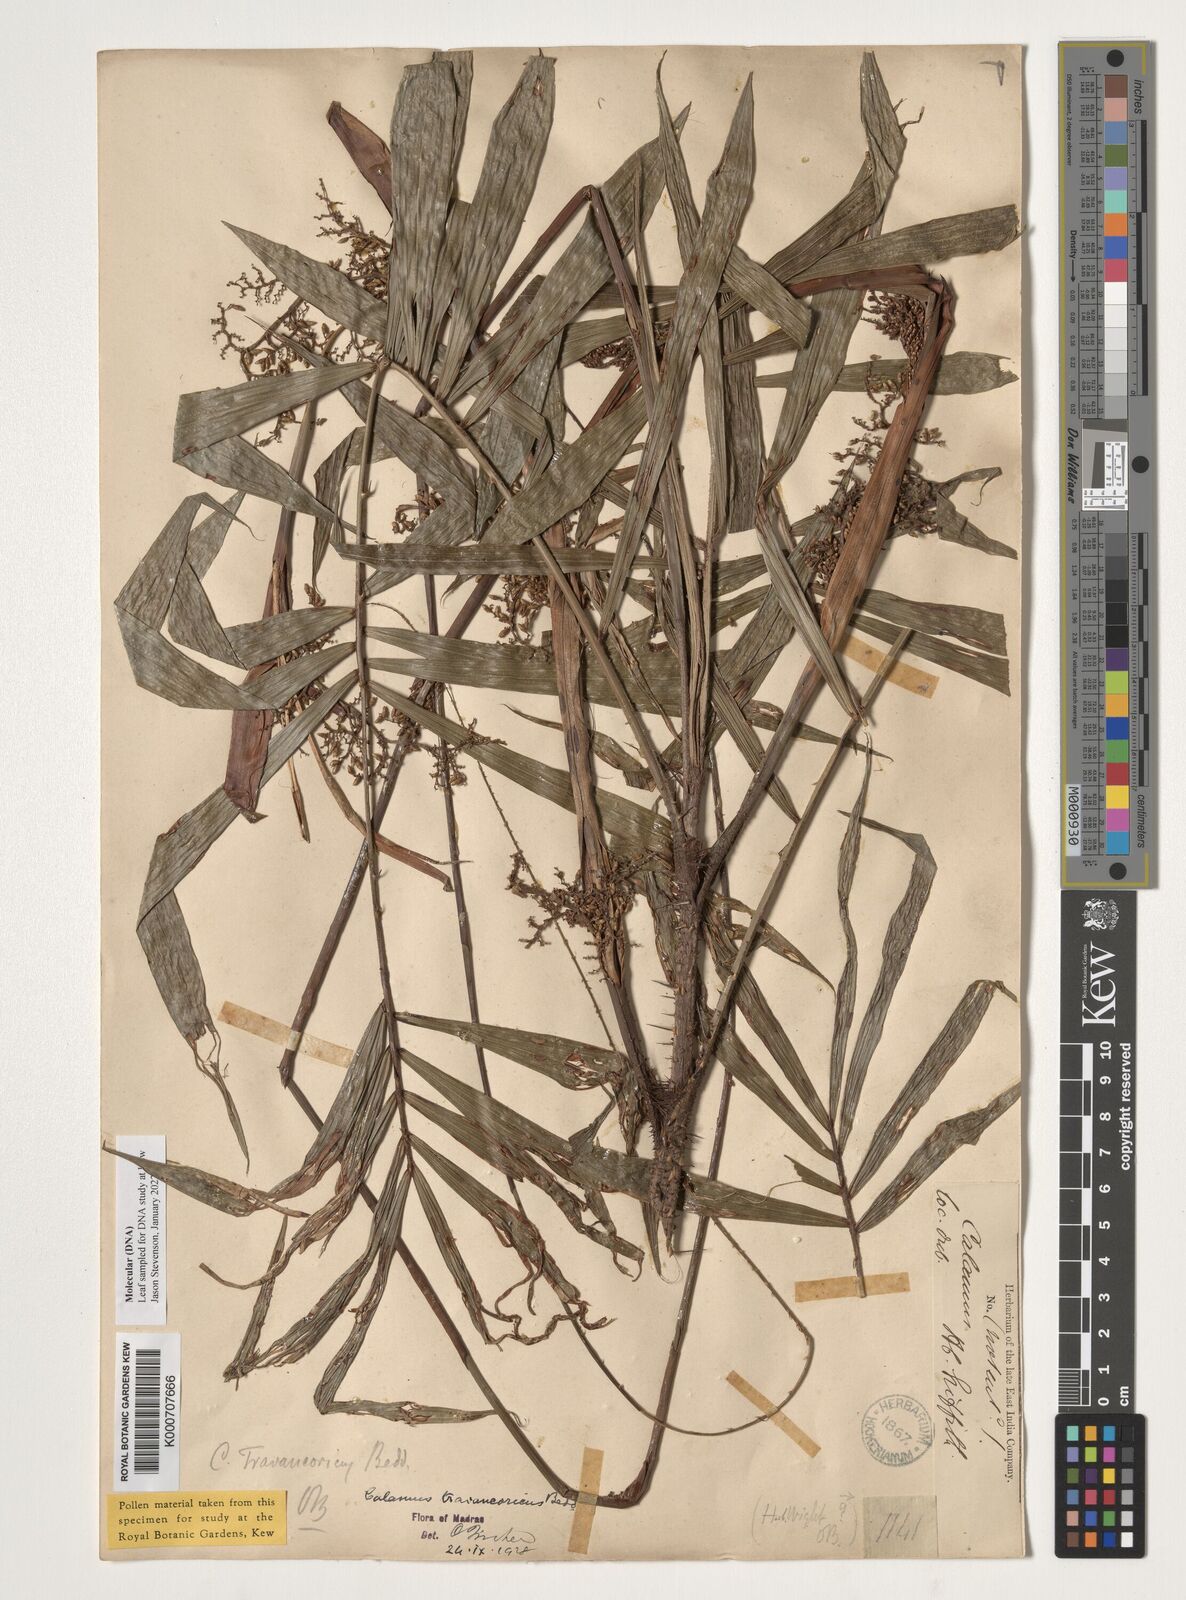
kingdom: Plantae
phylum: Tracheophyta
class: Liliopsida
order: Arecales
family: Arecaceae
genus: Calamus
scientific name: Calamus rheedei
